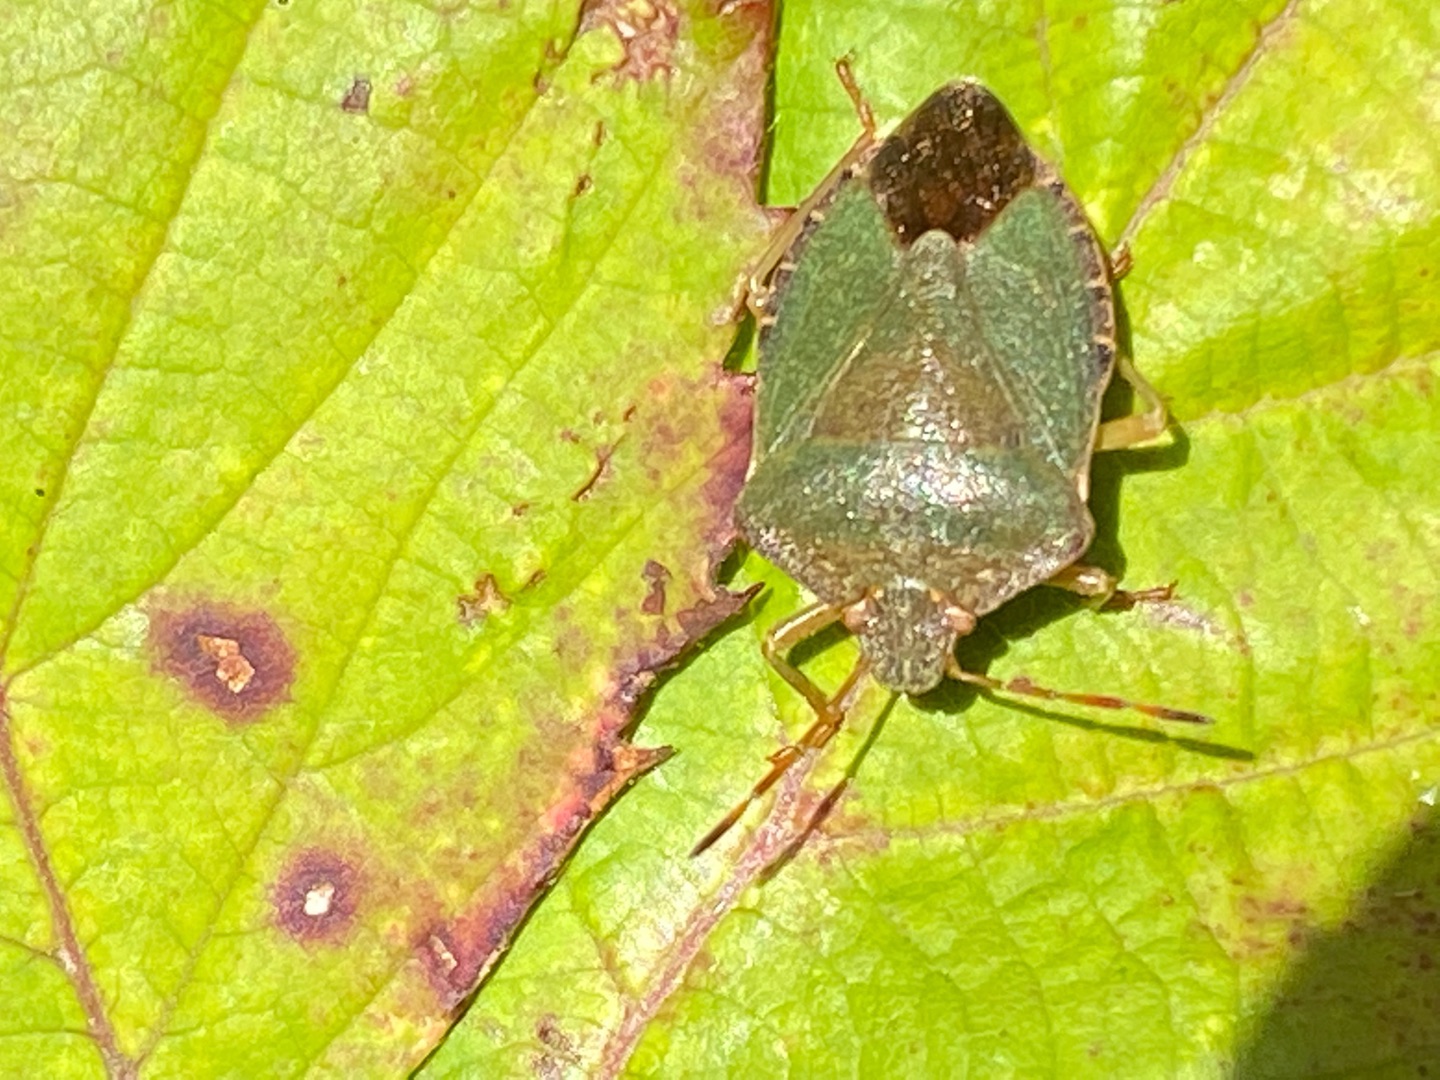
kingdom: Animalia
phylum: Arthropoda
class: Insecta
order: Hemiptera
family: Pentatomidae
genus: Palomena
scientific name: Palomena prasina
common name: Grøn bredtæge
